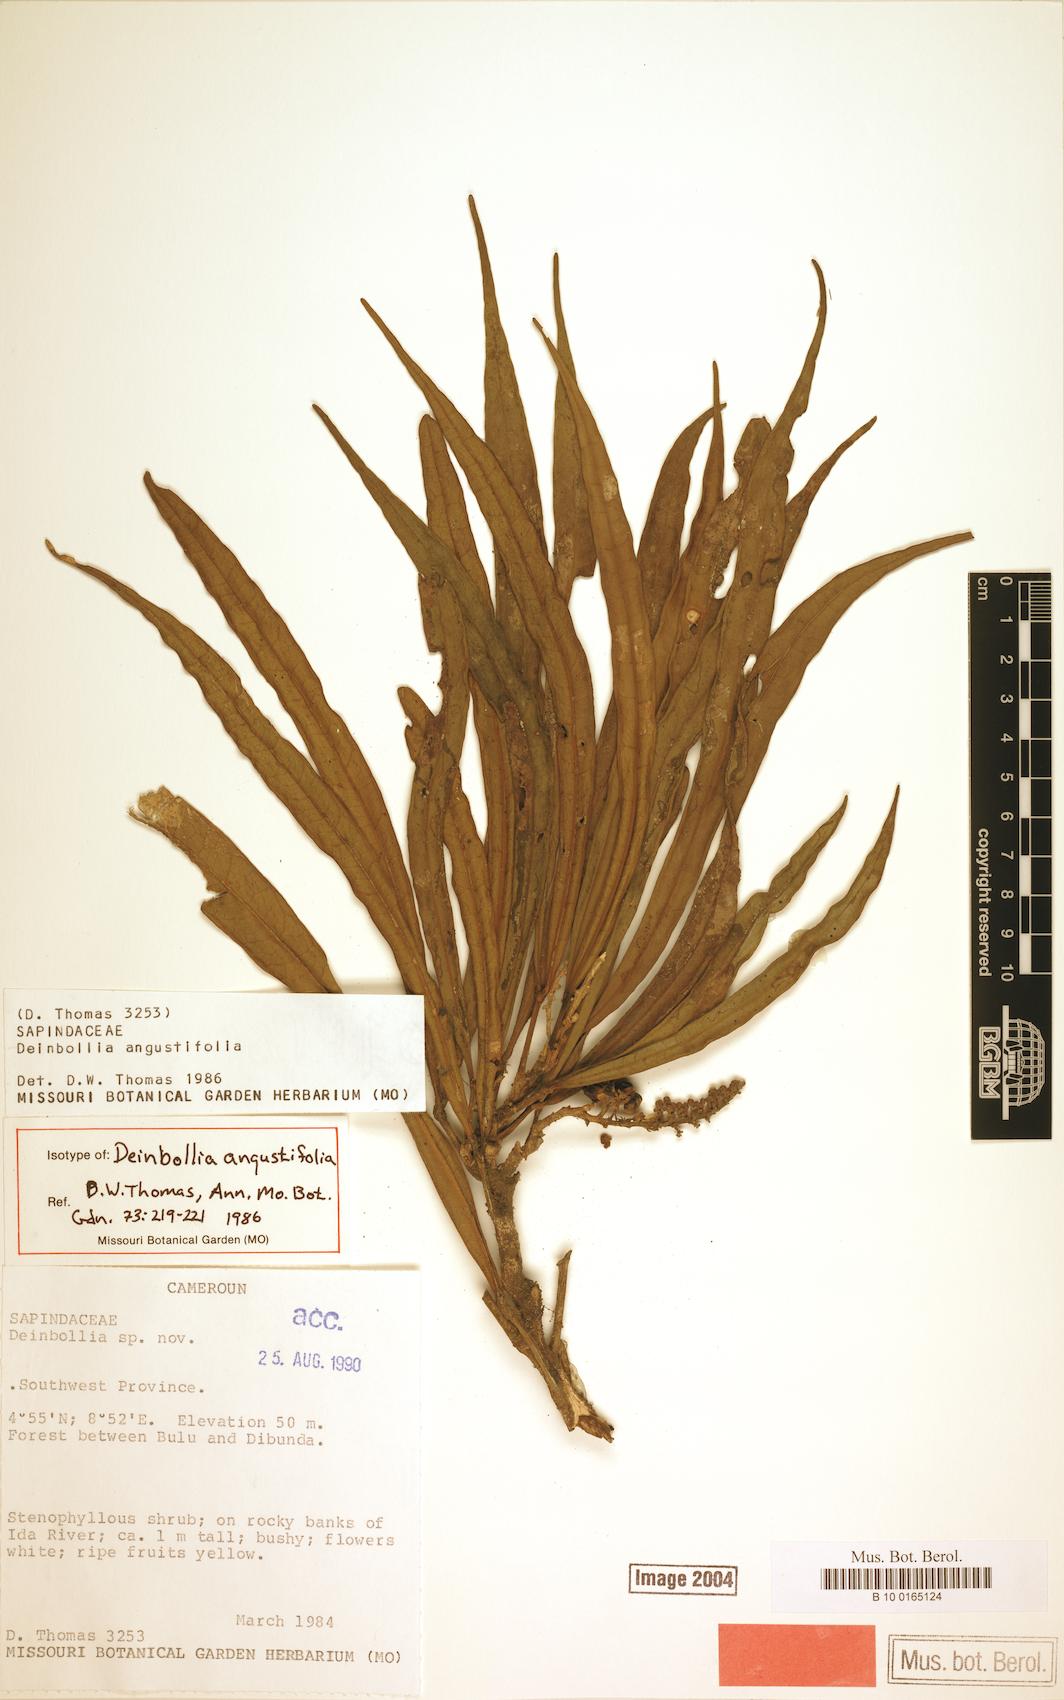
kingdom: Plantae
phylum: Tracheophyta
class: Magnoliopsida
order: Sapindales
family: Sapindaceae
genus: Deinbollia
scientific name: Deinbollia angustifolia
